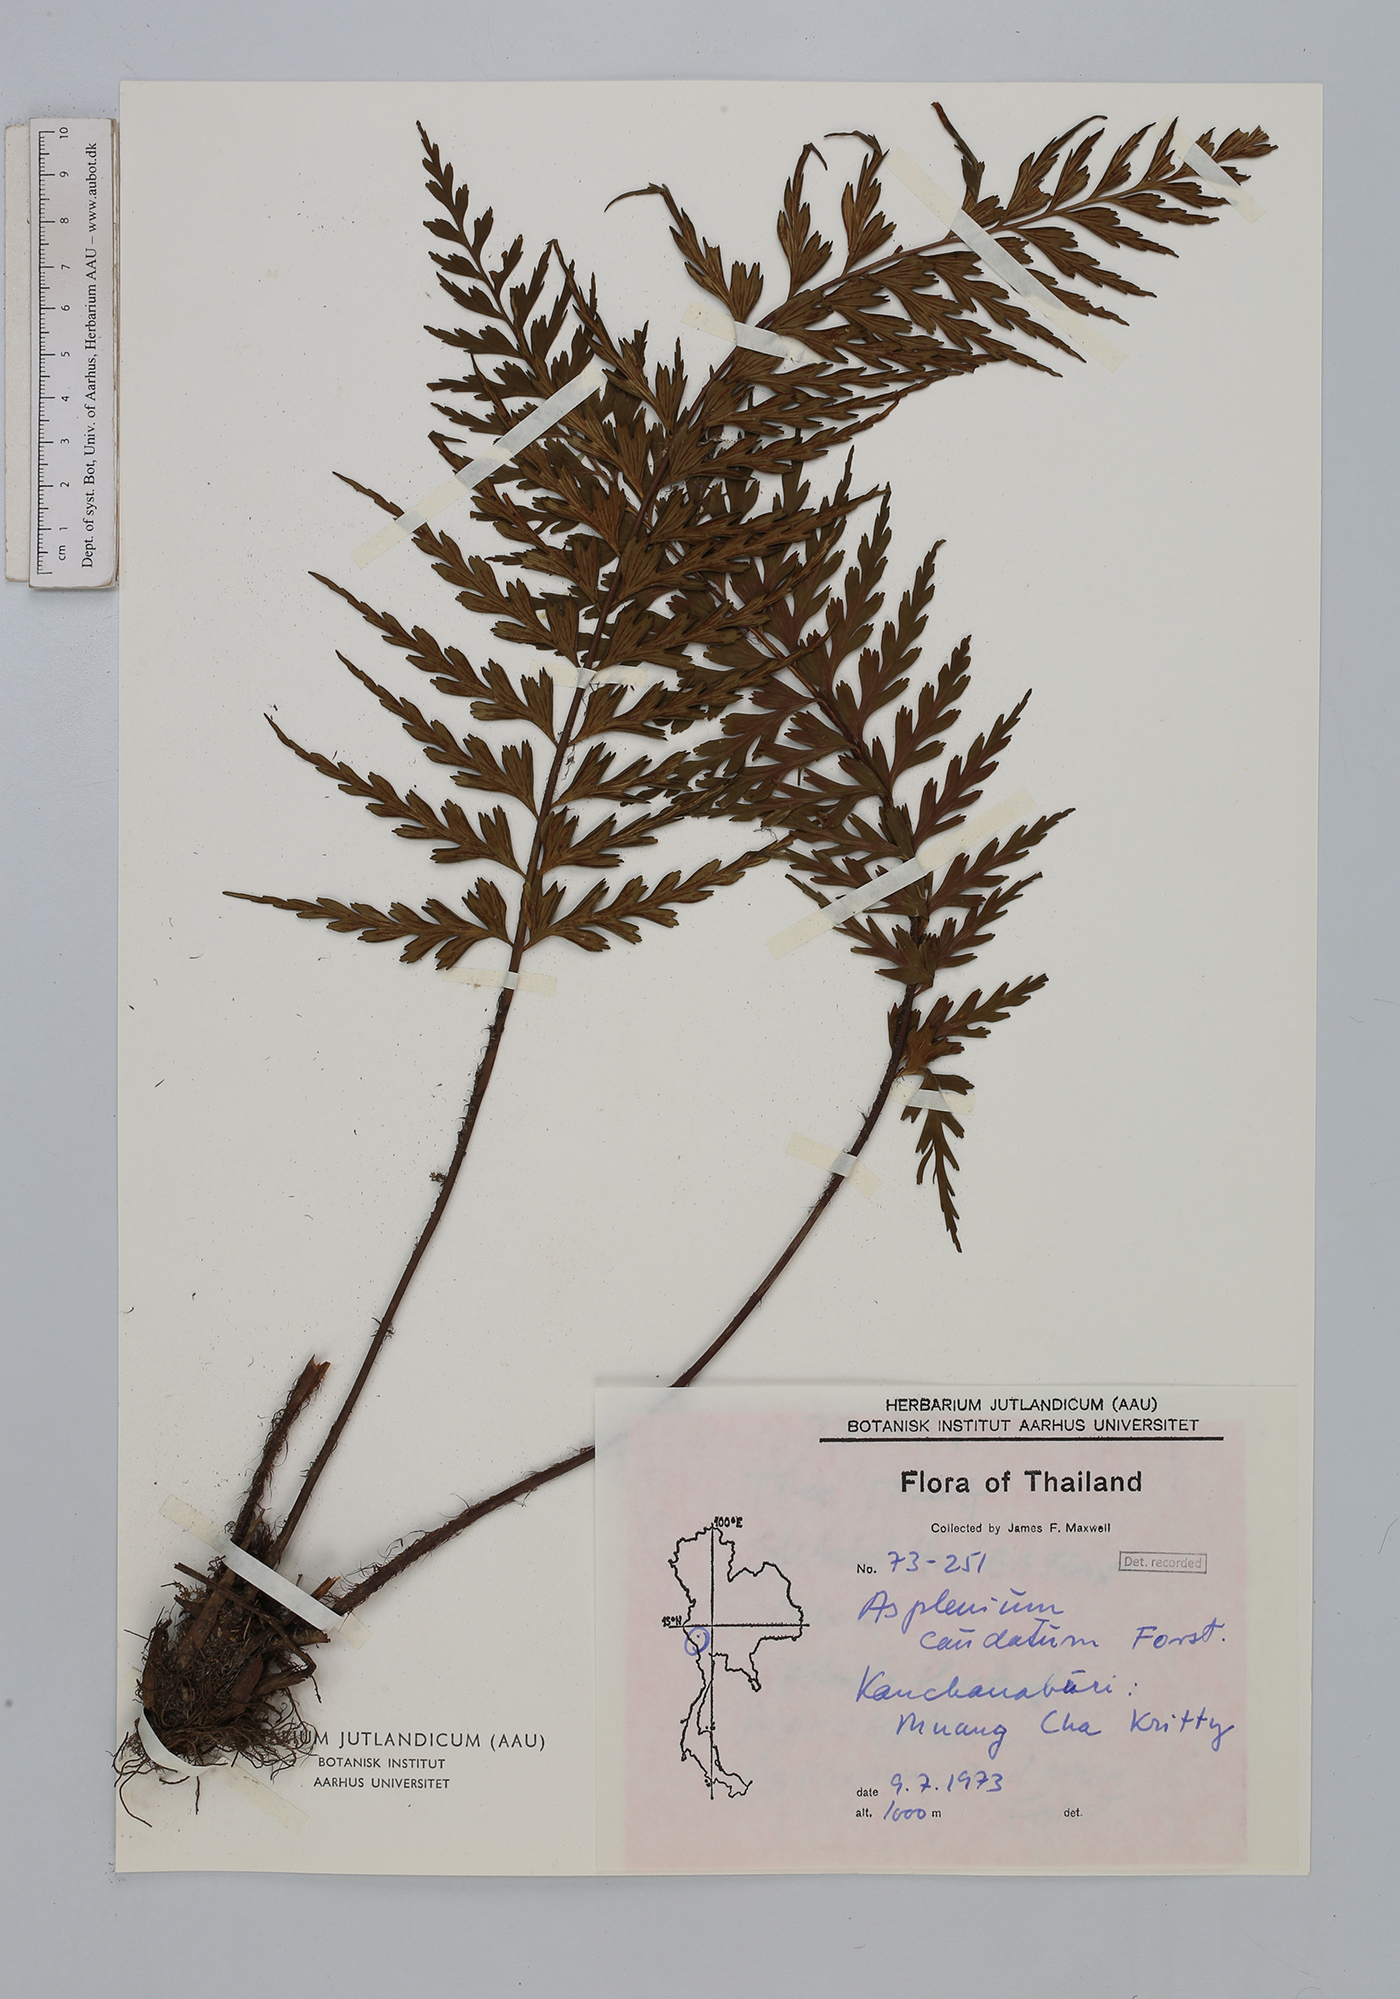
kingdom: Plantae
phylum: Tracheophyta
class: Polypodiopsida
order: Polypodiales
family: Aspleniaceae
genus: Asplenium
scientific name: Asplenium caudatum
